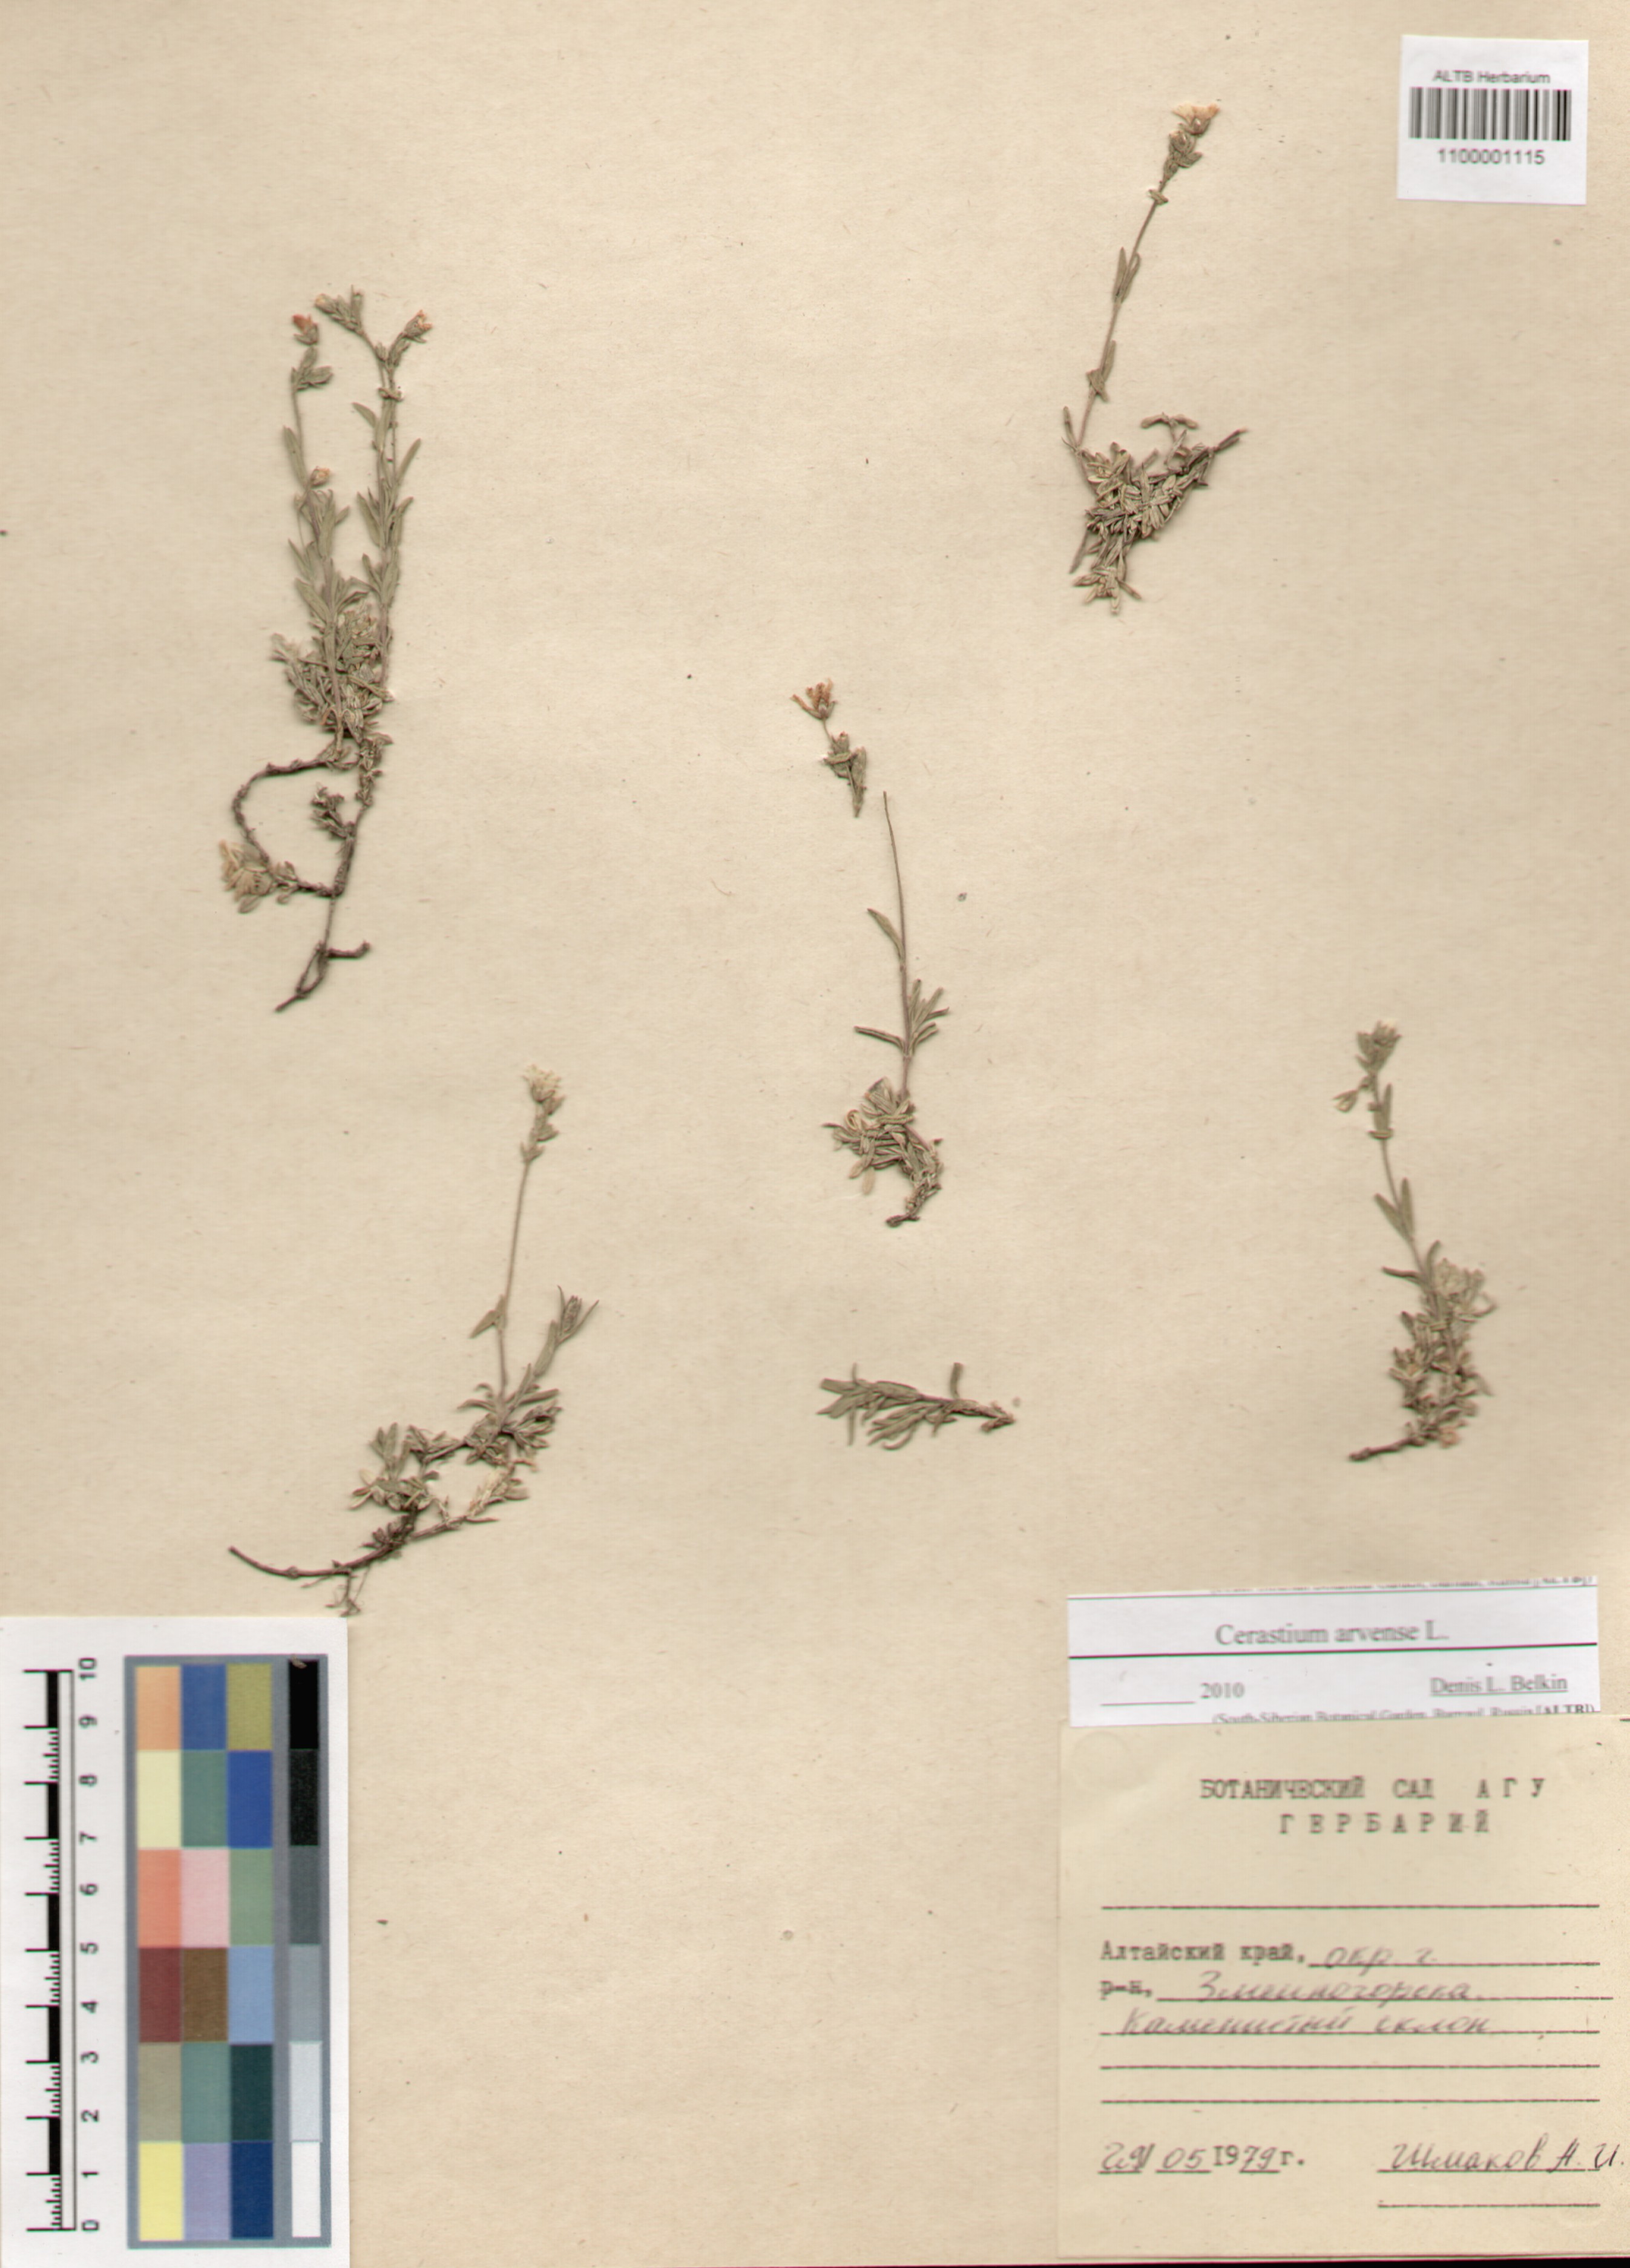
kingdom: Plantae
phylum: Tracheophyta
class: Magnoliopsida
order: Caryophyllales
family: Caryophyllaceae
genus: Cerastium
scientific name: Cerastium arvense
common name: Field mouse-ear
